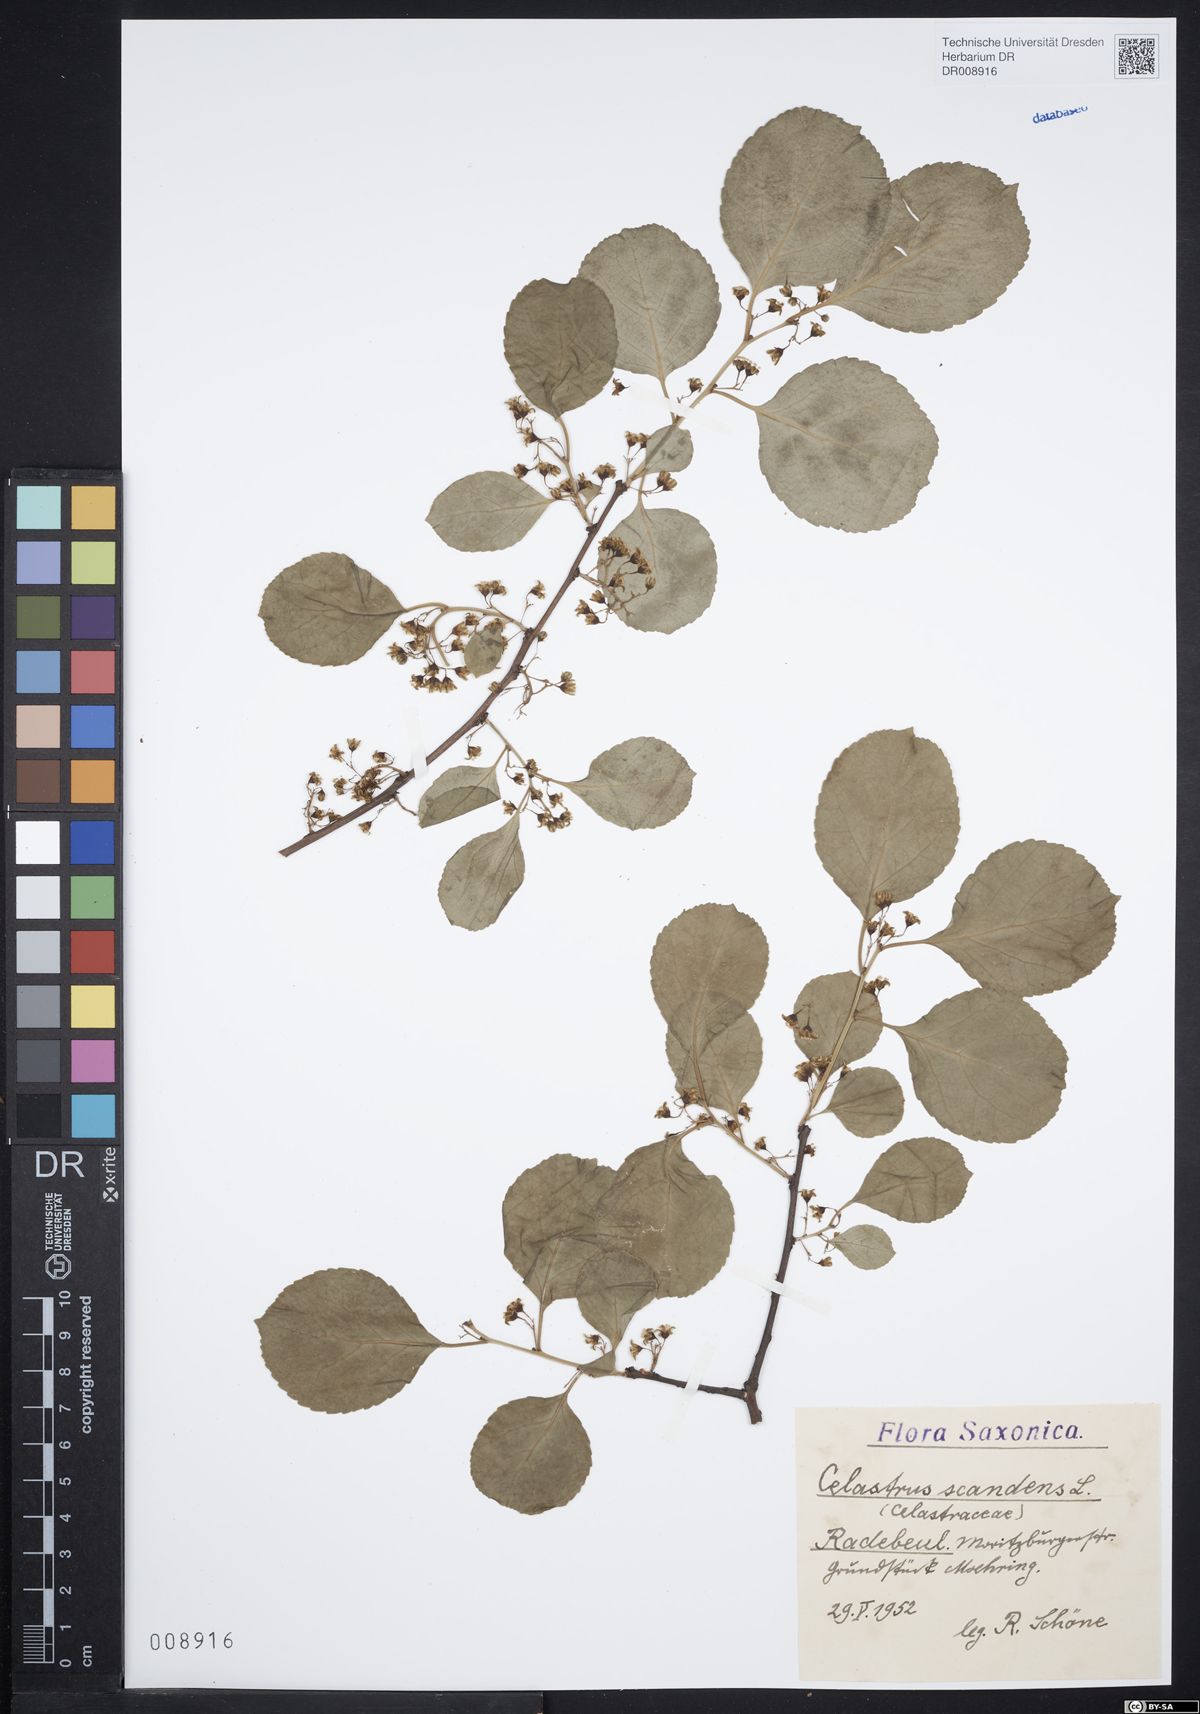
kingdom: Plantae
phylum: Tracheophyta
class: Magnoliopsida
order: Celastrales
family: Celastraceae
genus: Celastrus
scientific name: Celastrus scandens
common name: American bittersweet
